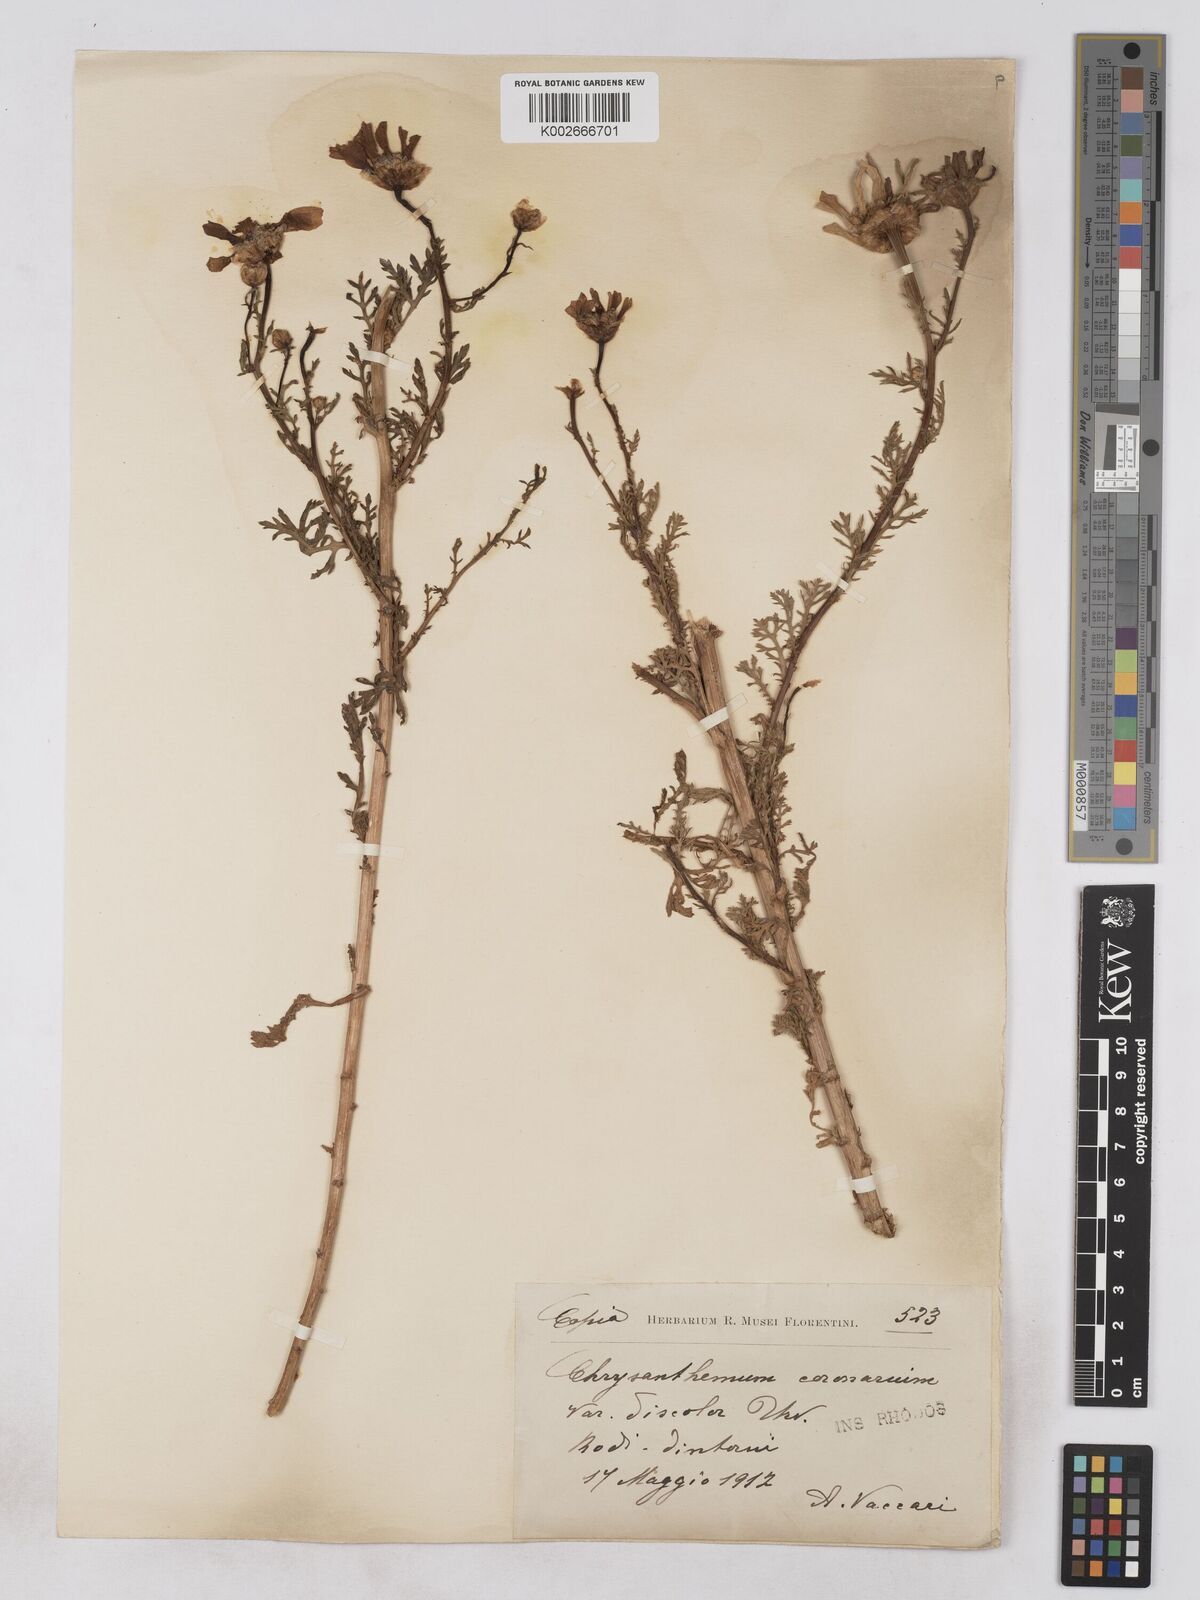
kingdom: Plantae
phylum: Tracheophyta
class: Magnoliopsida
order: Asterales
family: Asteraceae
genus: Glebionis
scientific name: Glebionis coronaria
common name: Crowndaisy
